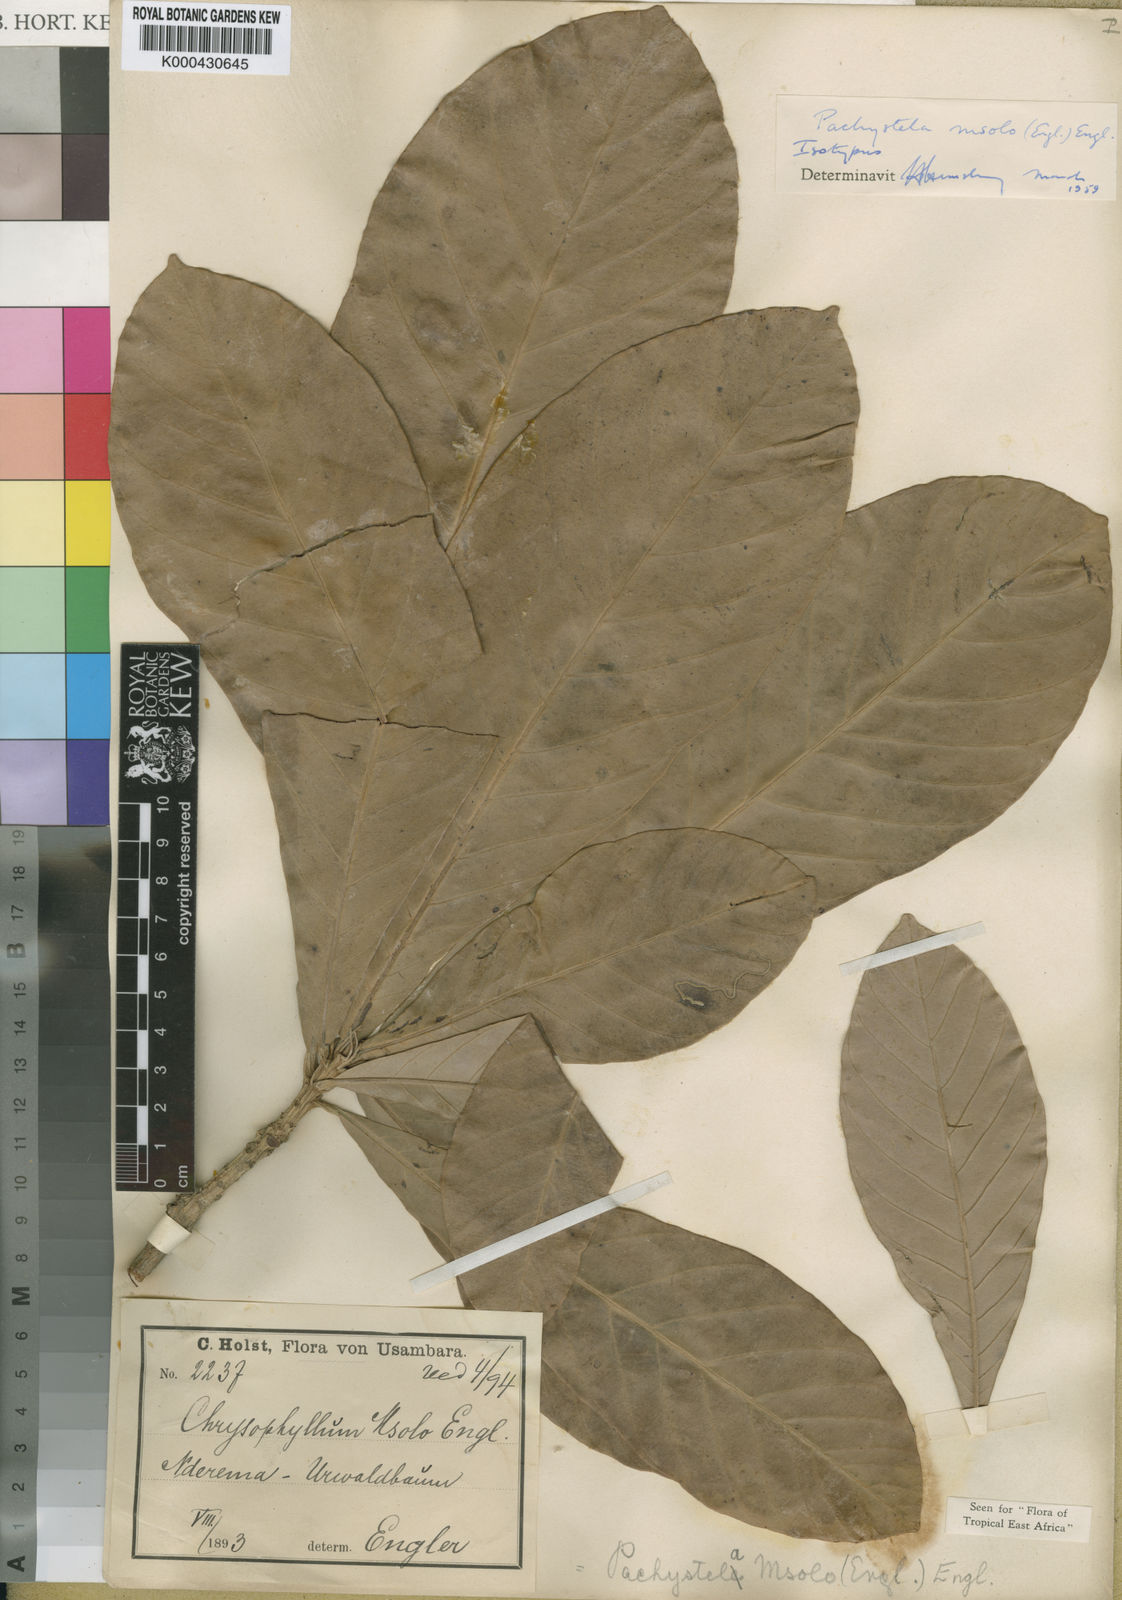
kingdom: Plantae
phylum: Tracheophyta
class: Magnoliopsida
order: Ericales
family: Sapotaceae
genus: Synsepalum
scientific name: Synsepalum msolo
